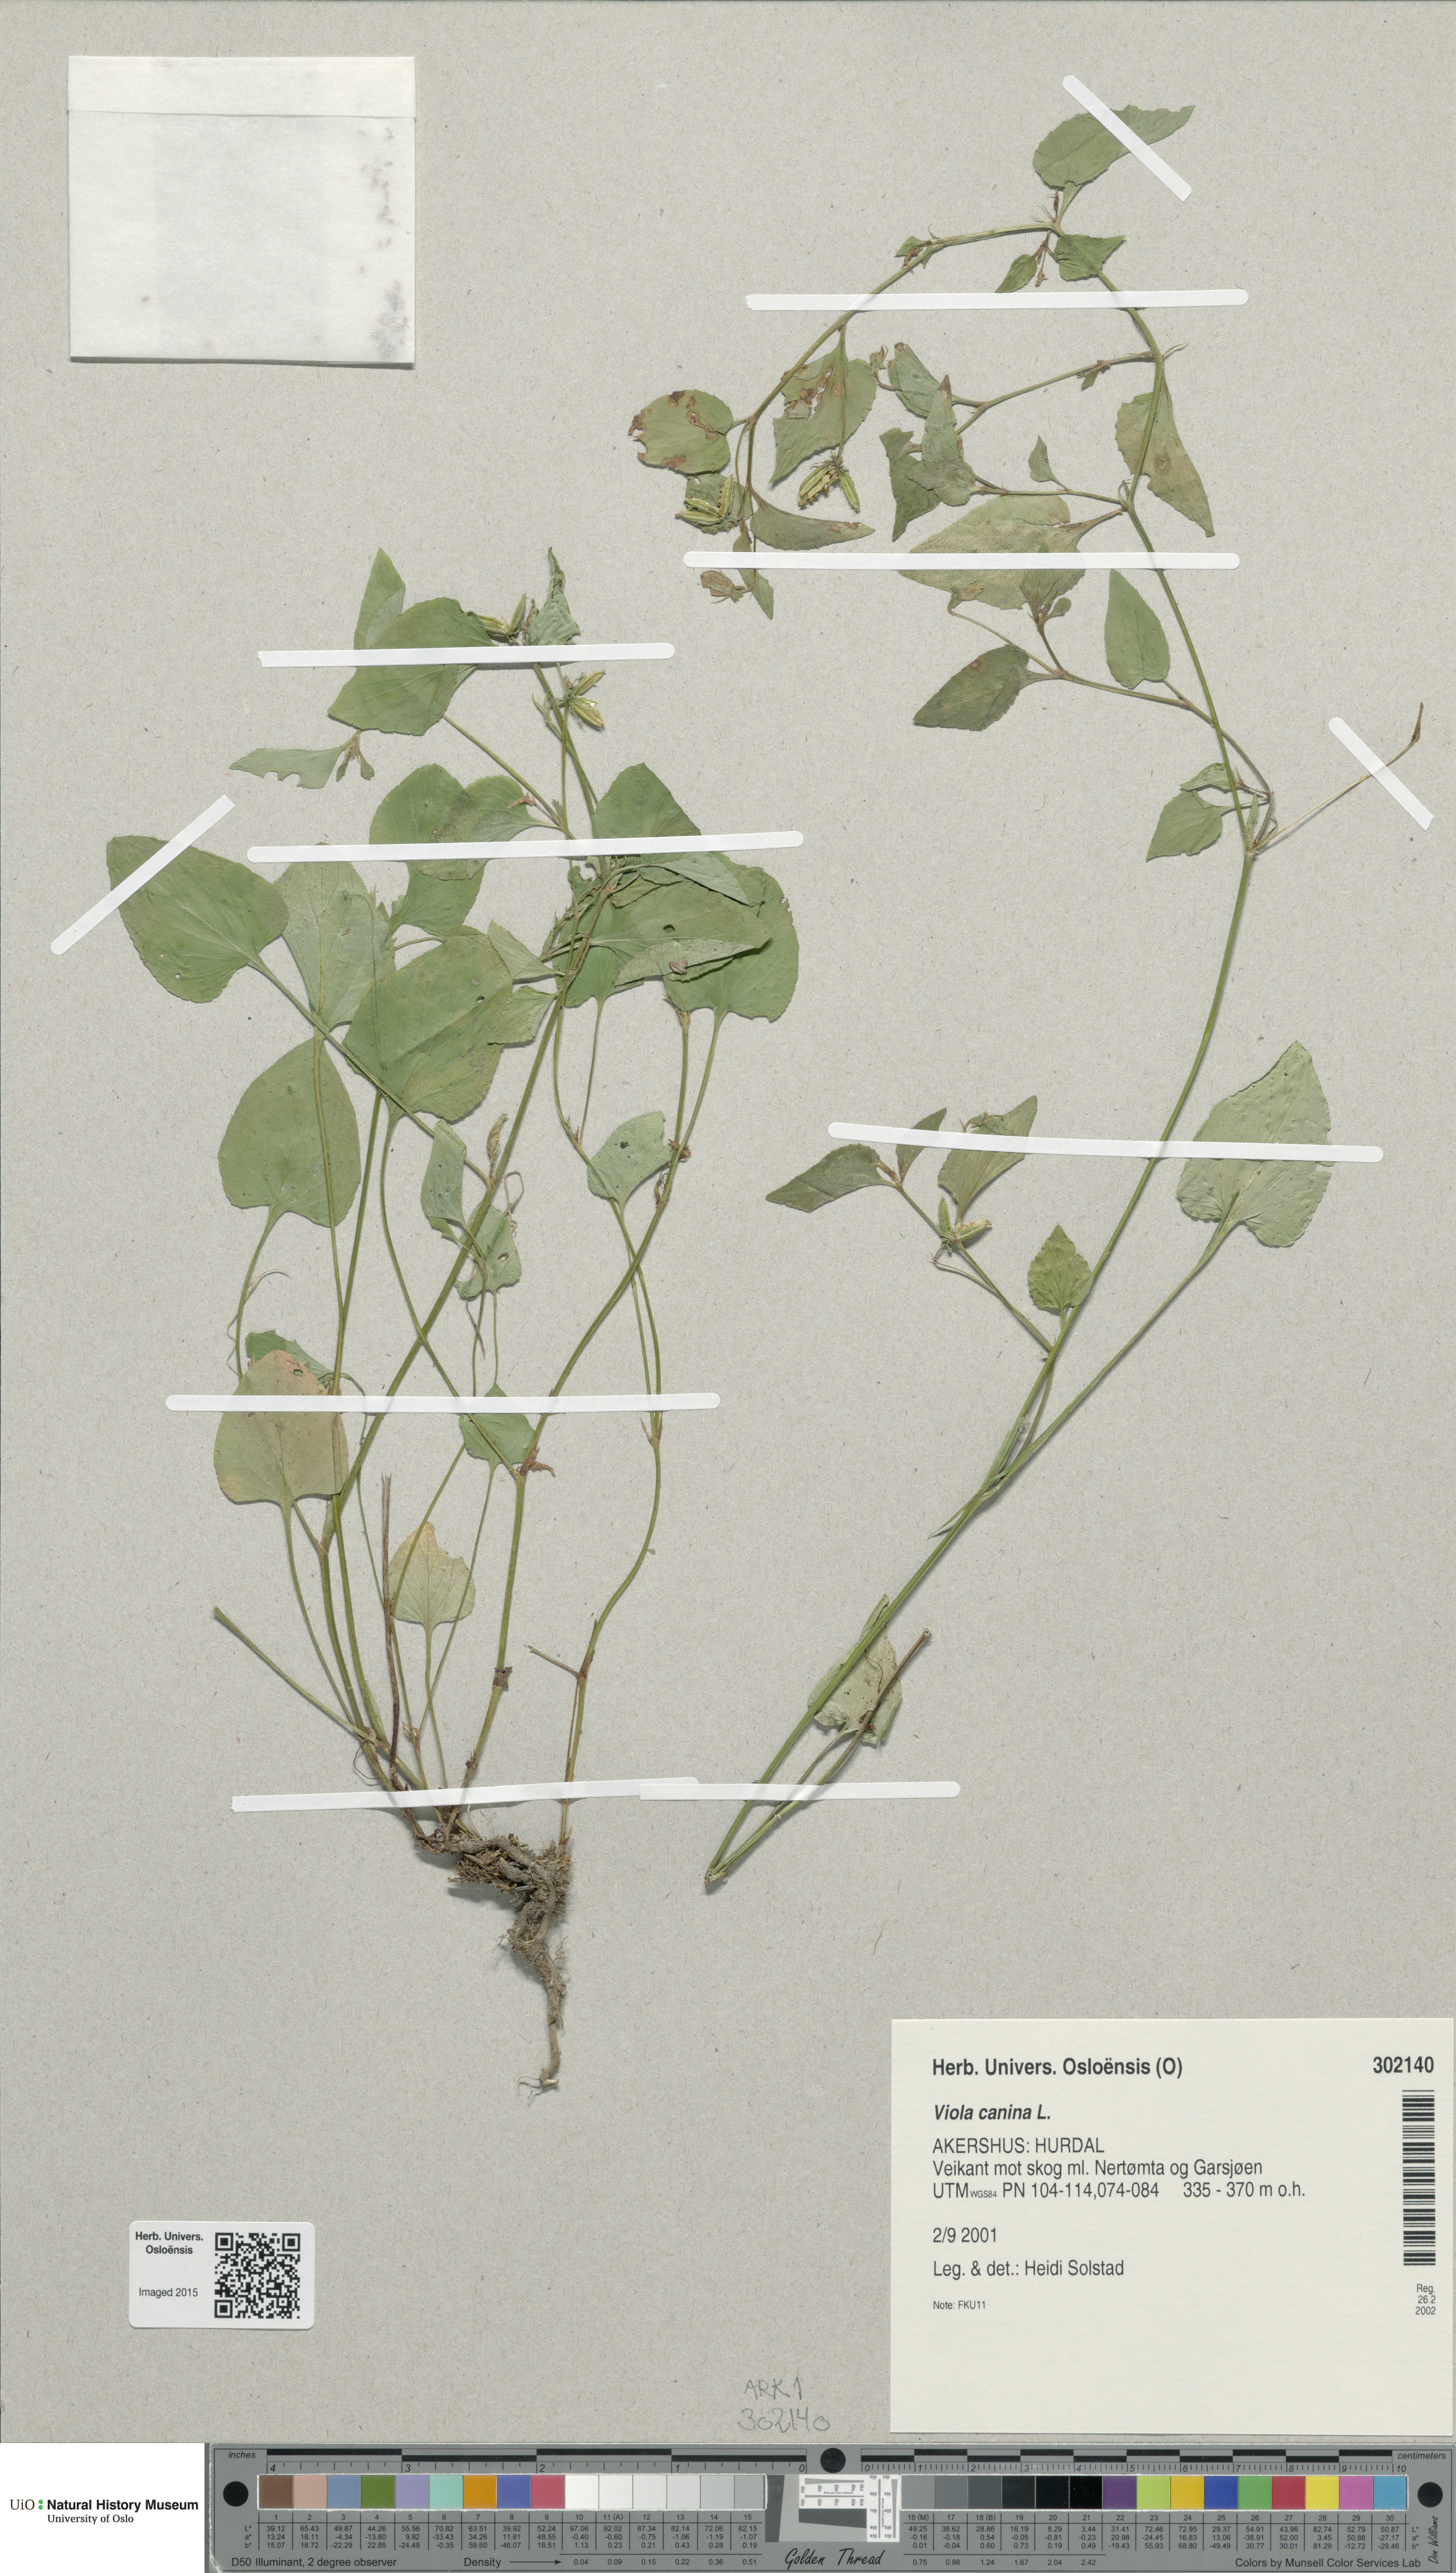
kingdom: Plantae
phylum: Tracheophyta
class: Magnoliopsida
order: Malpighiales
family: Violaceae
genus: Viola
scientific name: Viola canina
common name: Heath dog-violet
